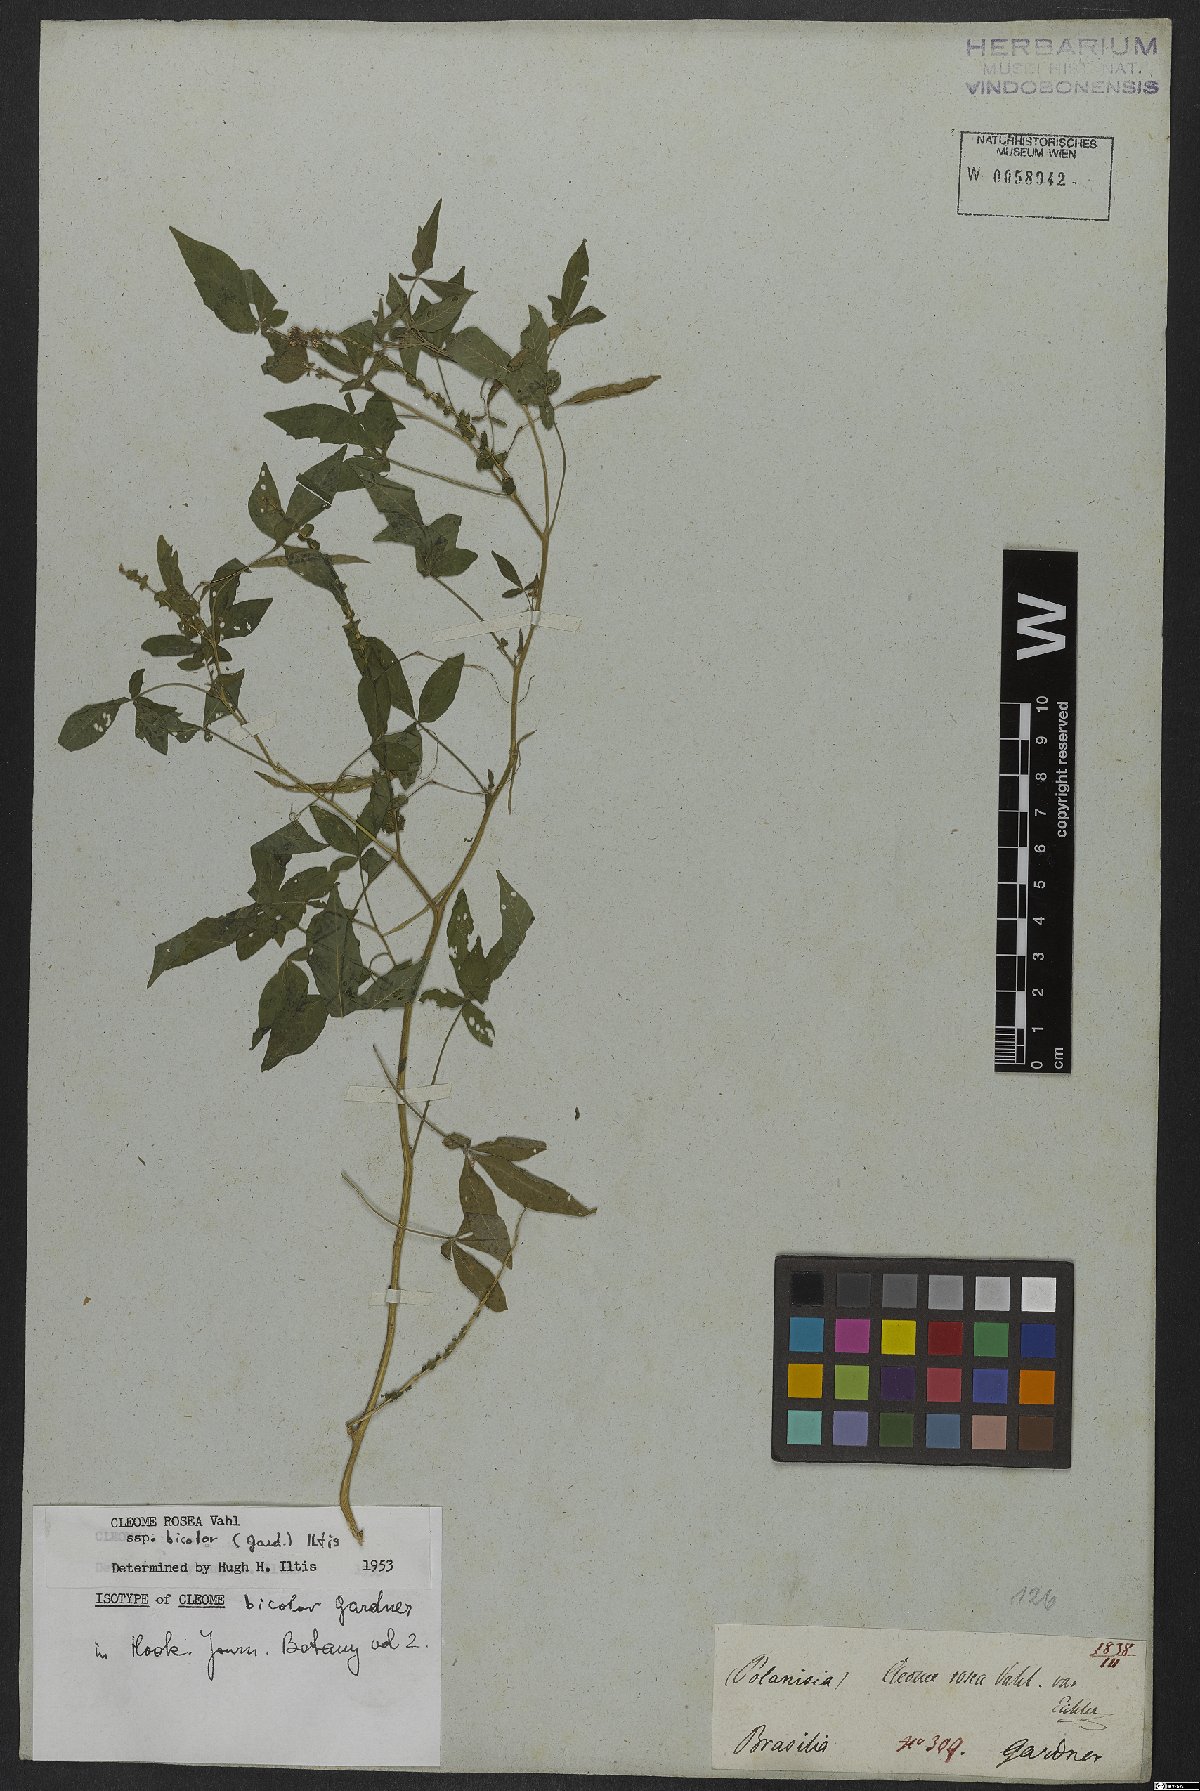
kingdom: Plantae
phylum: Tracheophyta
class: Magnoliopsida
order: Brassicales
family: Cleomaceae
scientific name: Cleomaceae
